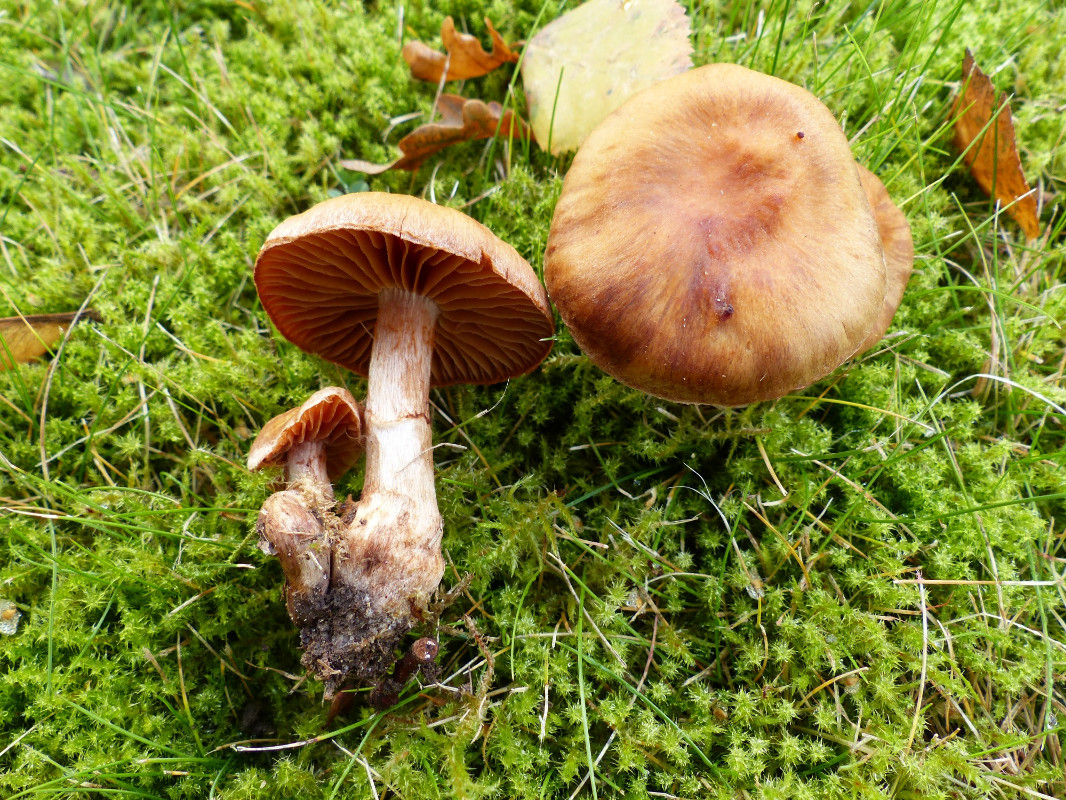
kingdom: Fungi
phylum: Basidiomycota
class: Agaricomycetes
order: Agaricales
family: Cortinariaceae
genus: Cortinarius
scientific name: Cortinarius hinnuleus
